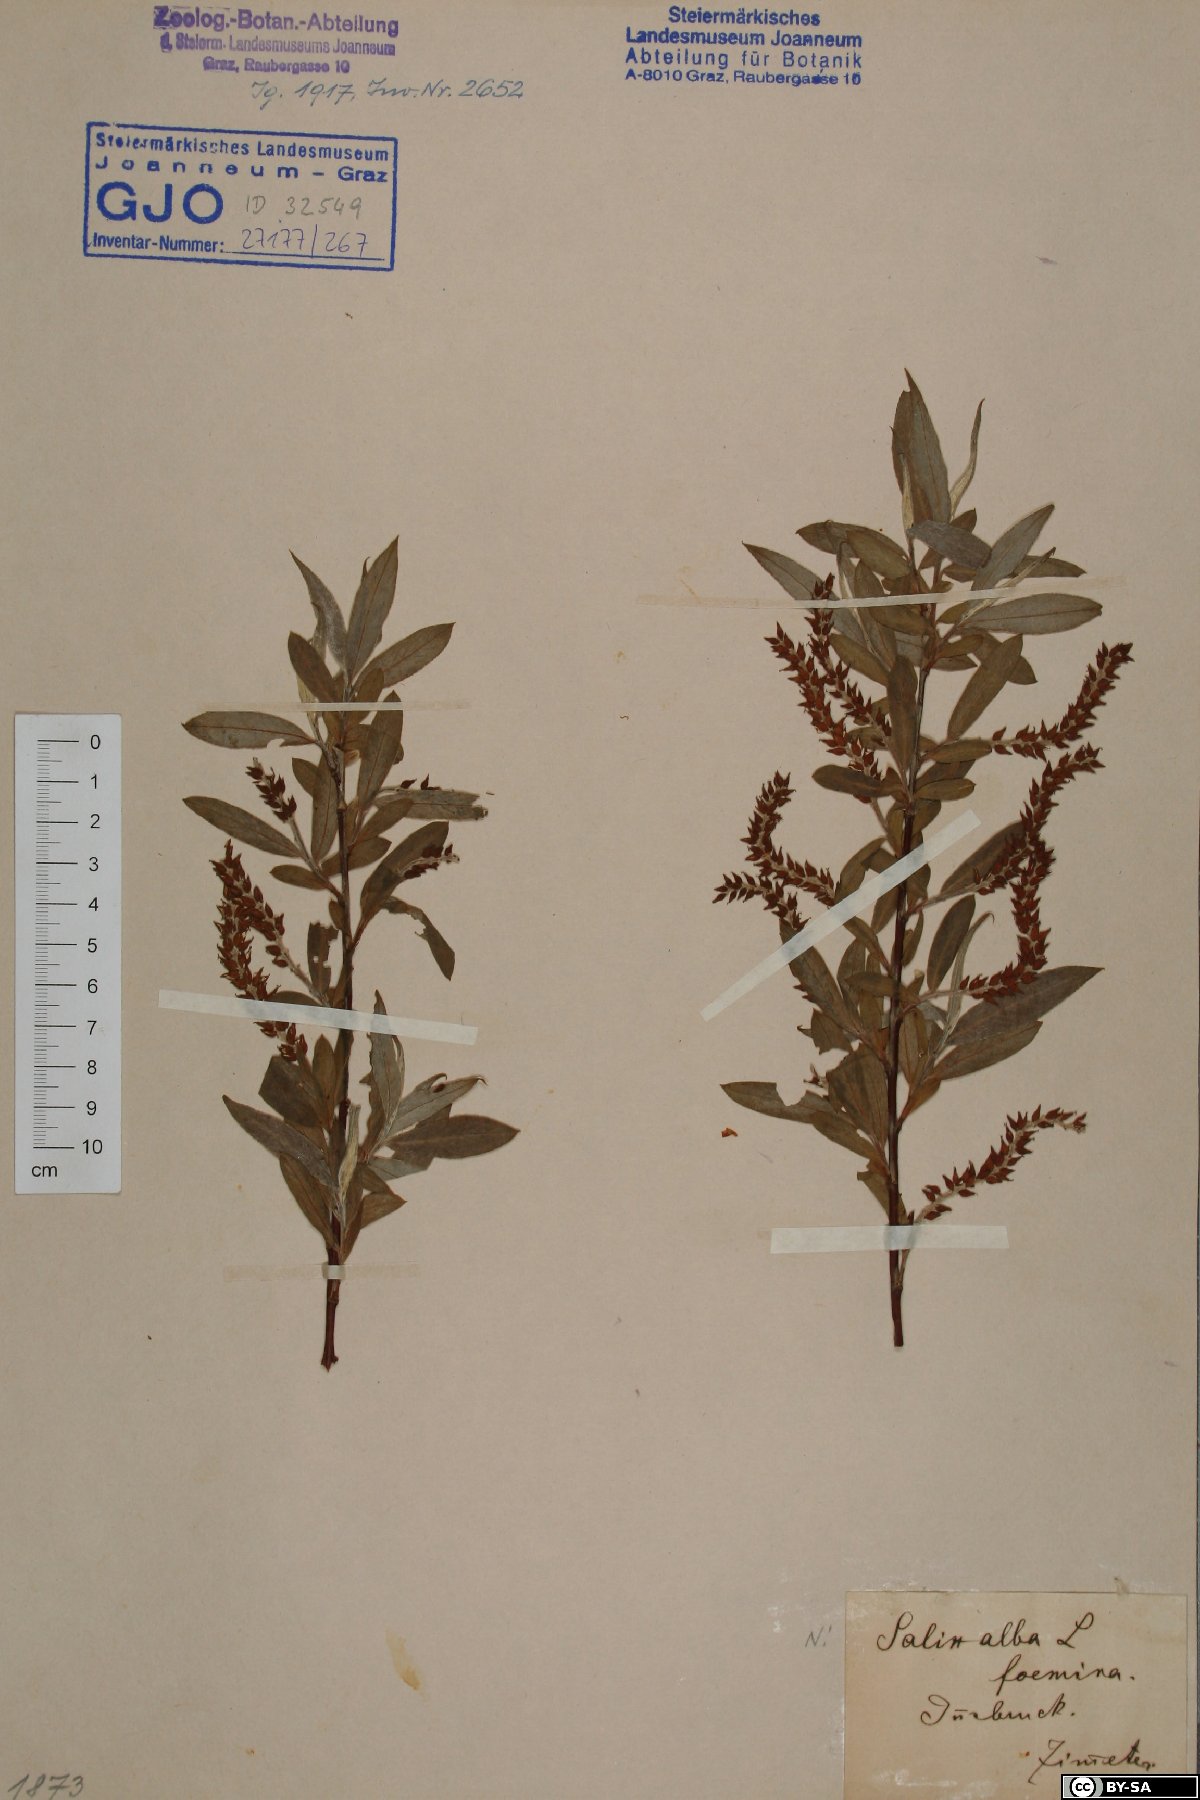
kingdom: Plantae
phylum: Tracheophyta
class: Magnoliopsida
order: Malpighiales
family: Salicaceae
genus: Salix
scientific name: Salix alba
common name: White willow
